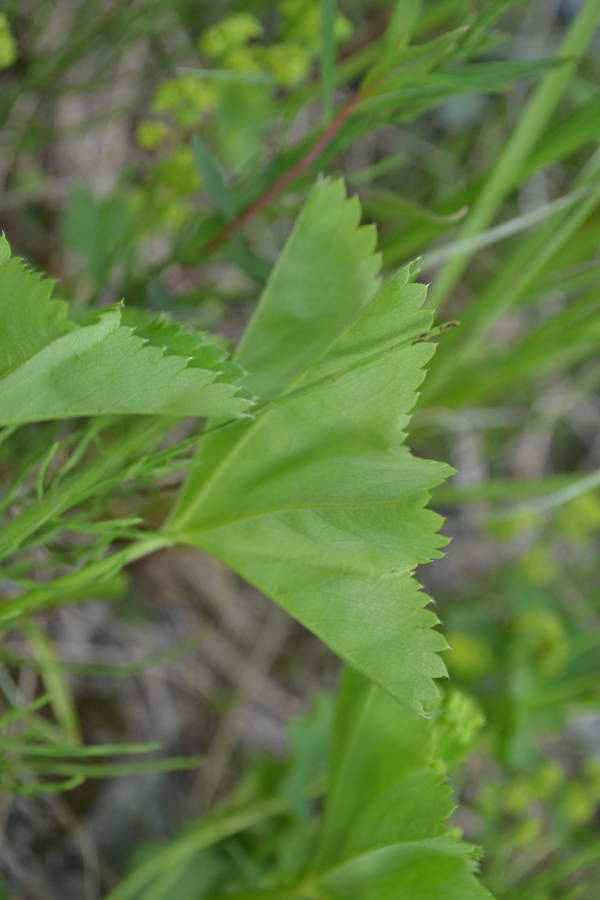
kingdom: Plantae
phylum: Tracheophyta
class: Magnoliopsida
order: Rosales
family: Rosaceae
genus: Alchemilla
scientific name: Alchemilla
